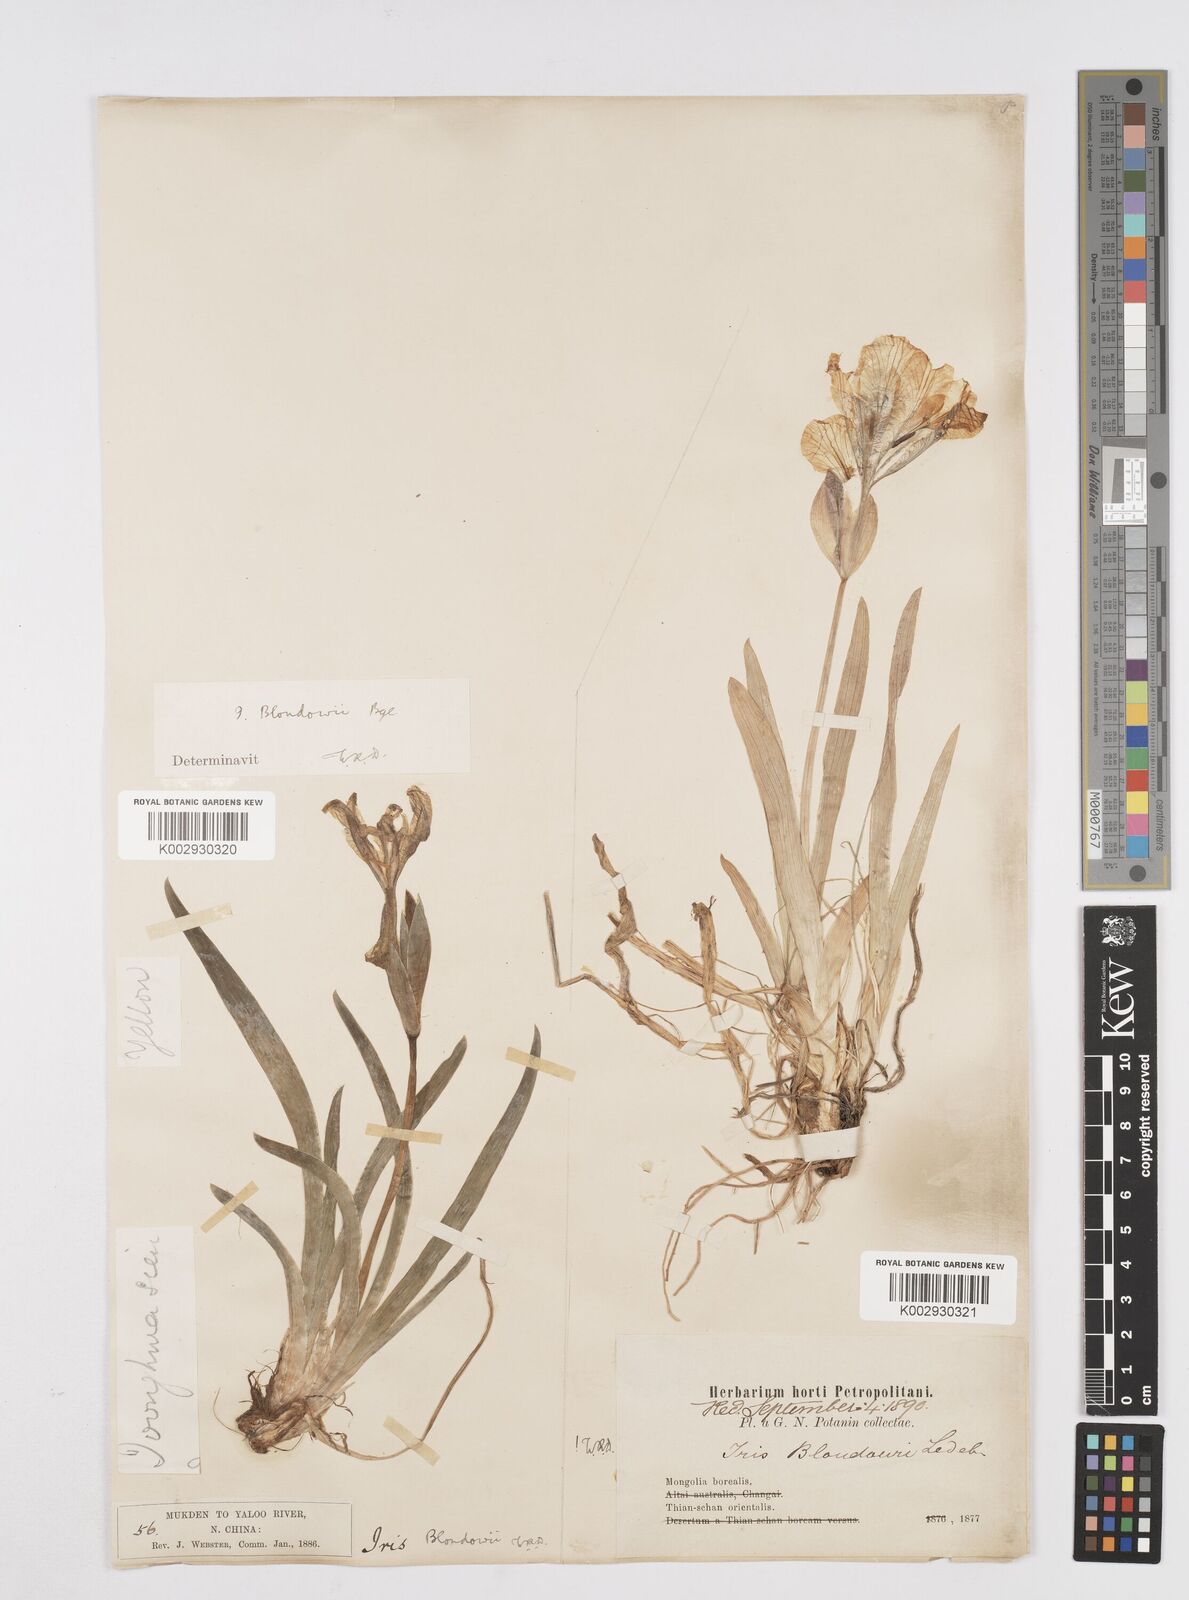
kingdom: Plantae
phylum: Tracheophyta
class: Liliopsida
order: Asparagales
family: Iridaceae
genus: Iris
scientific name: Iris bloudowii
